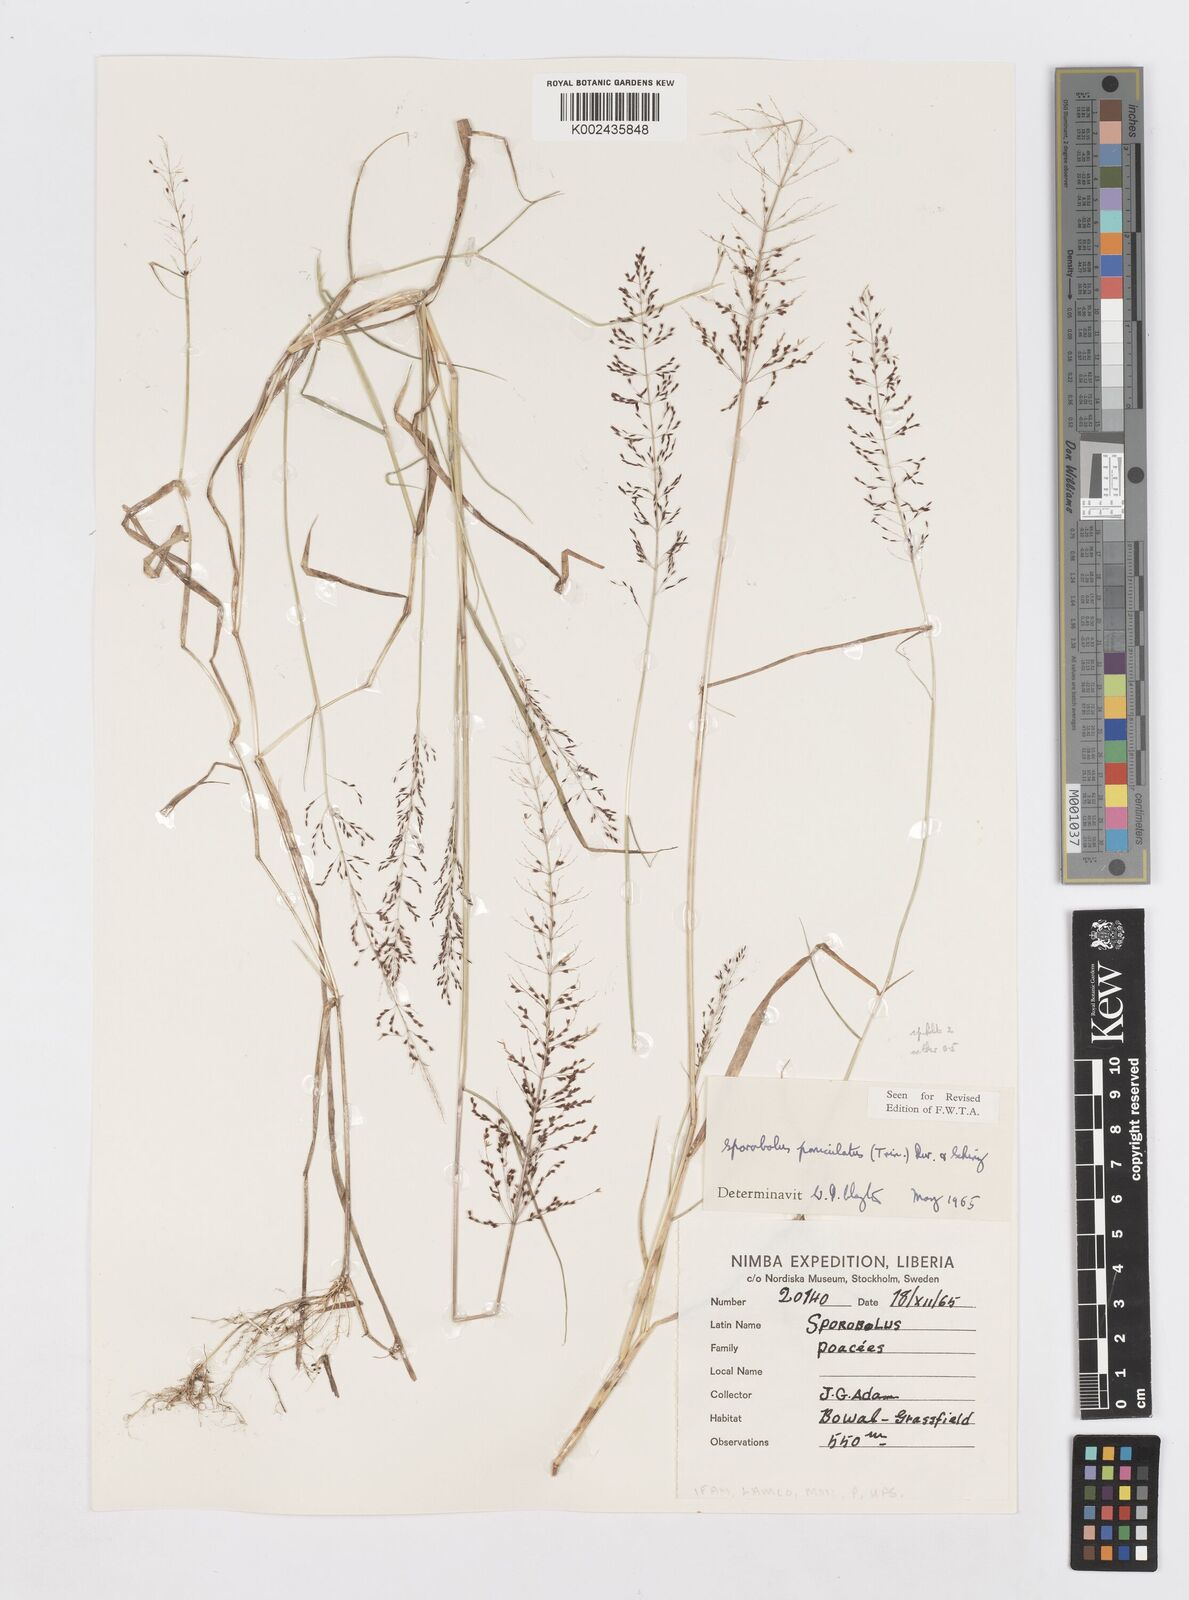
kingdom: Plantae
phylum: Tracheophyta
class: Liliopsida
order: Poales
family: Poaceae
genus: Sporobolus
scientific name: Sporobolus paniculatus
